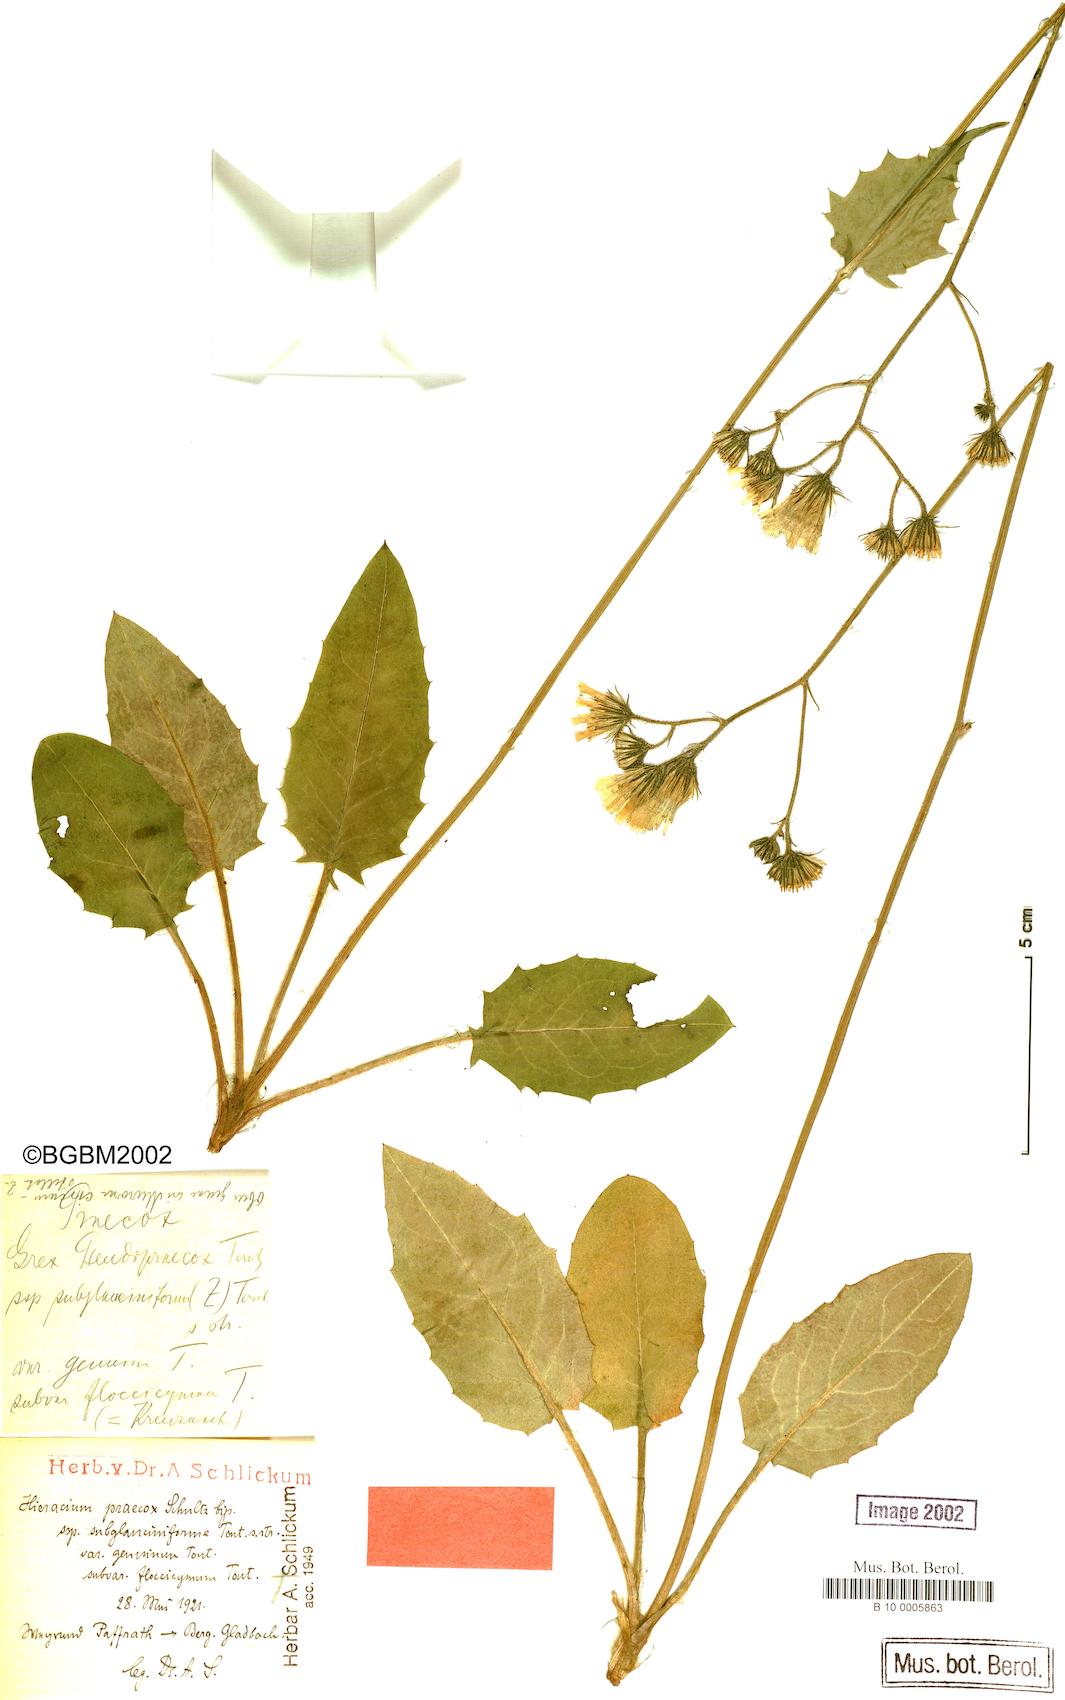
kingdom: Plantae
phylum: Tracheophyta
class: Magnoliopsida
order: Asterales
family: Asteraceae
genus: Hieracium
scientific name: Hieracium murorum
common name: Wall hawkweed
